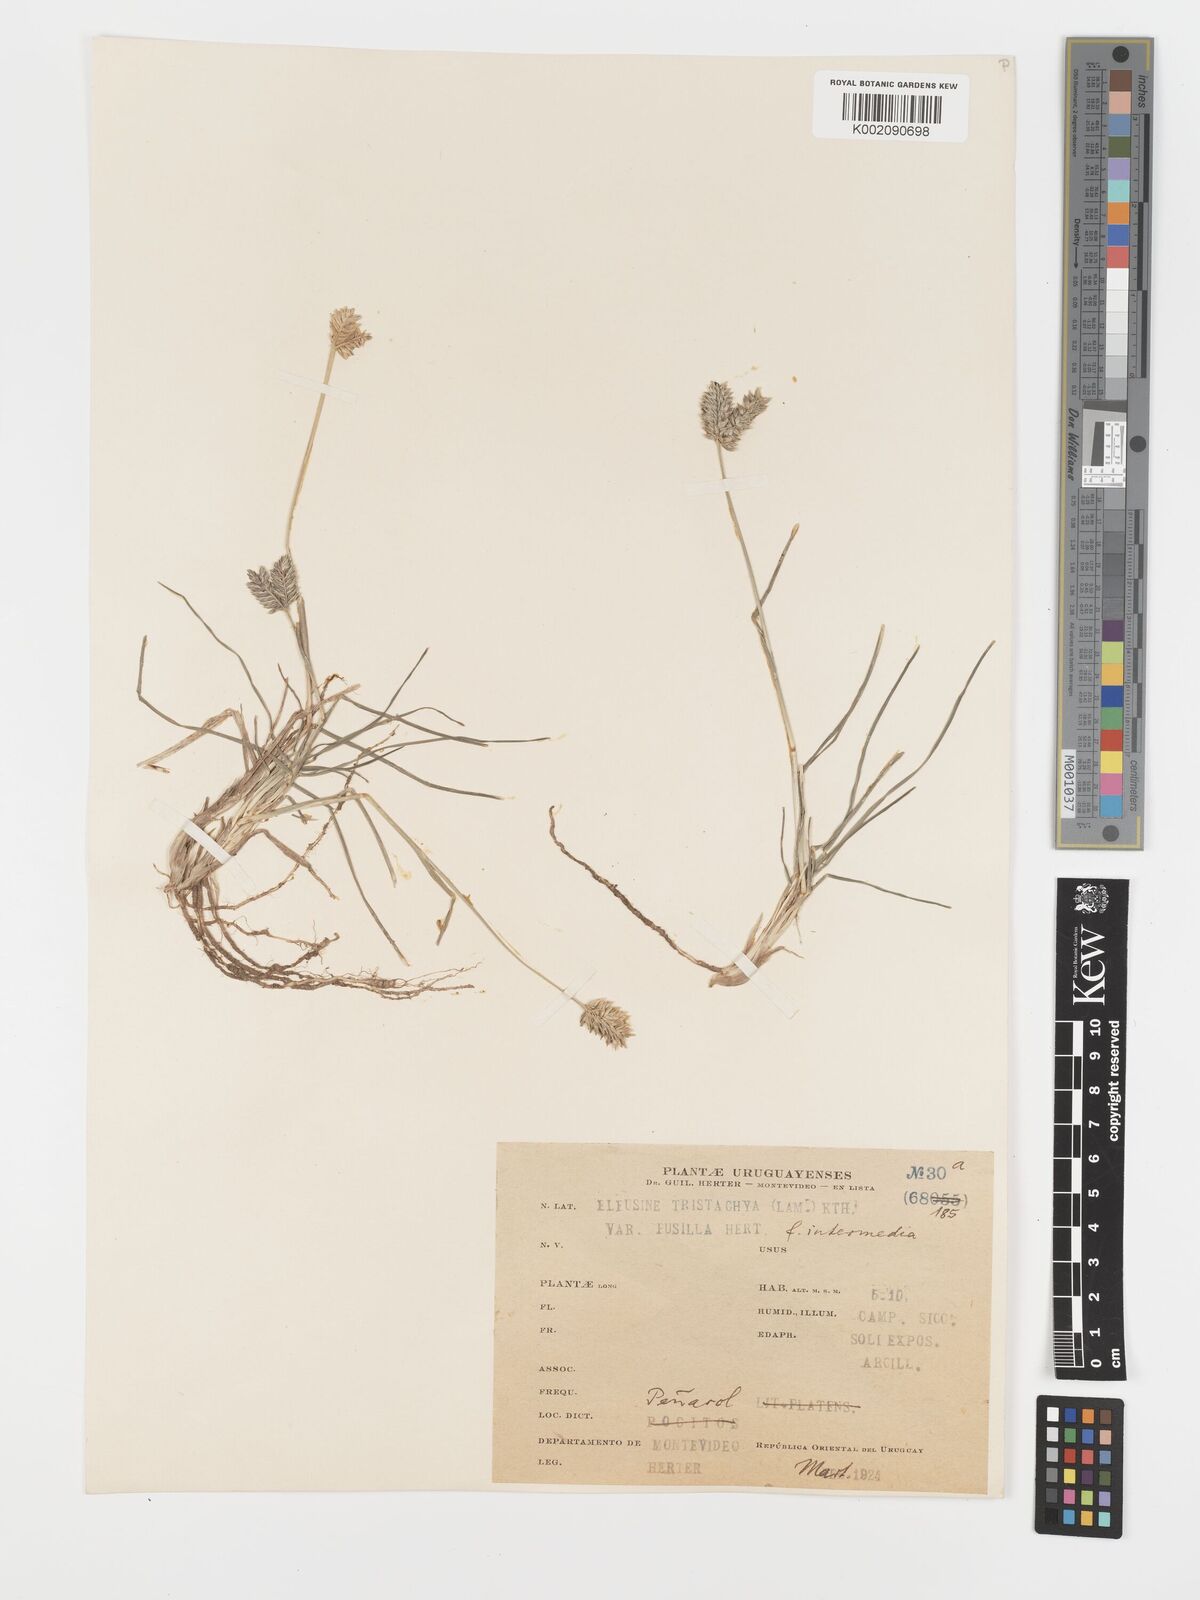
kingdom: Plantae
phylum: Tracheophyta
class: Liliopsida
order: Poales
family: Poaceae
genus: Eleusine
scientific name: Eleusine tristachya
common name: American yard-grass
